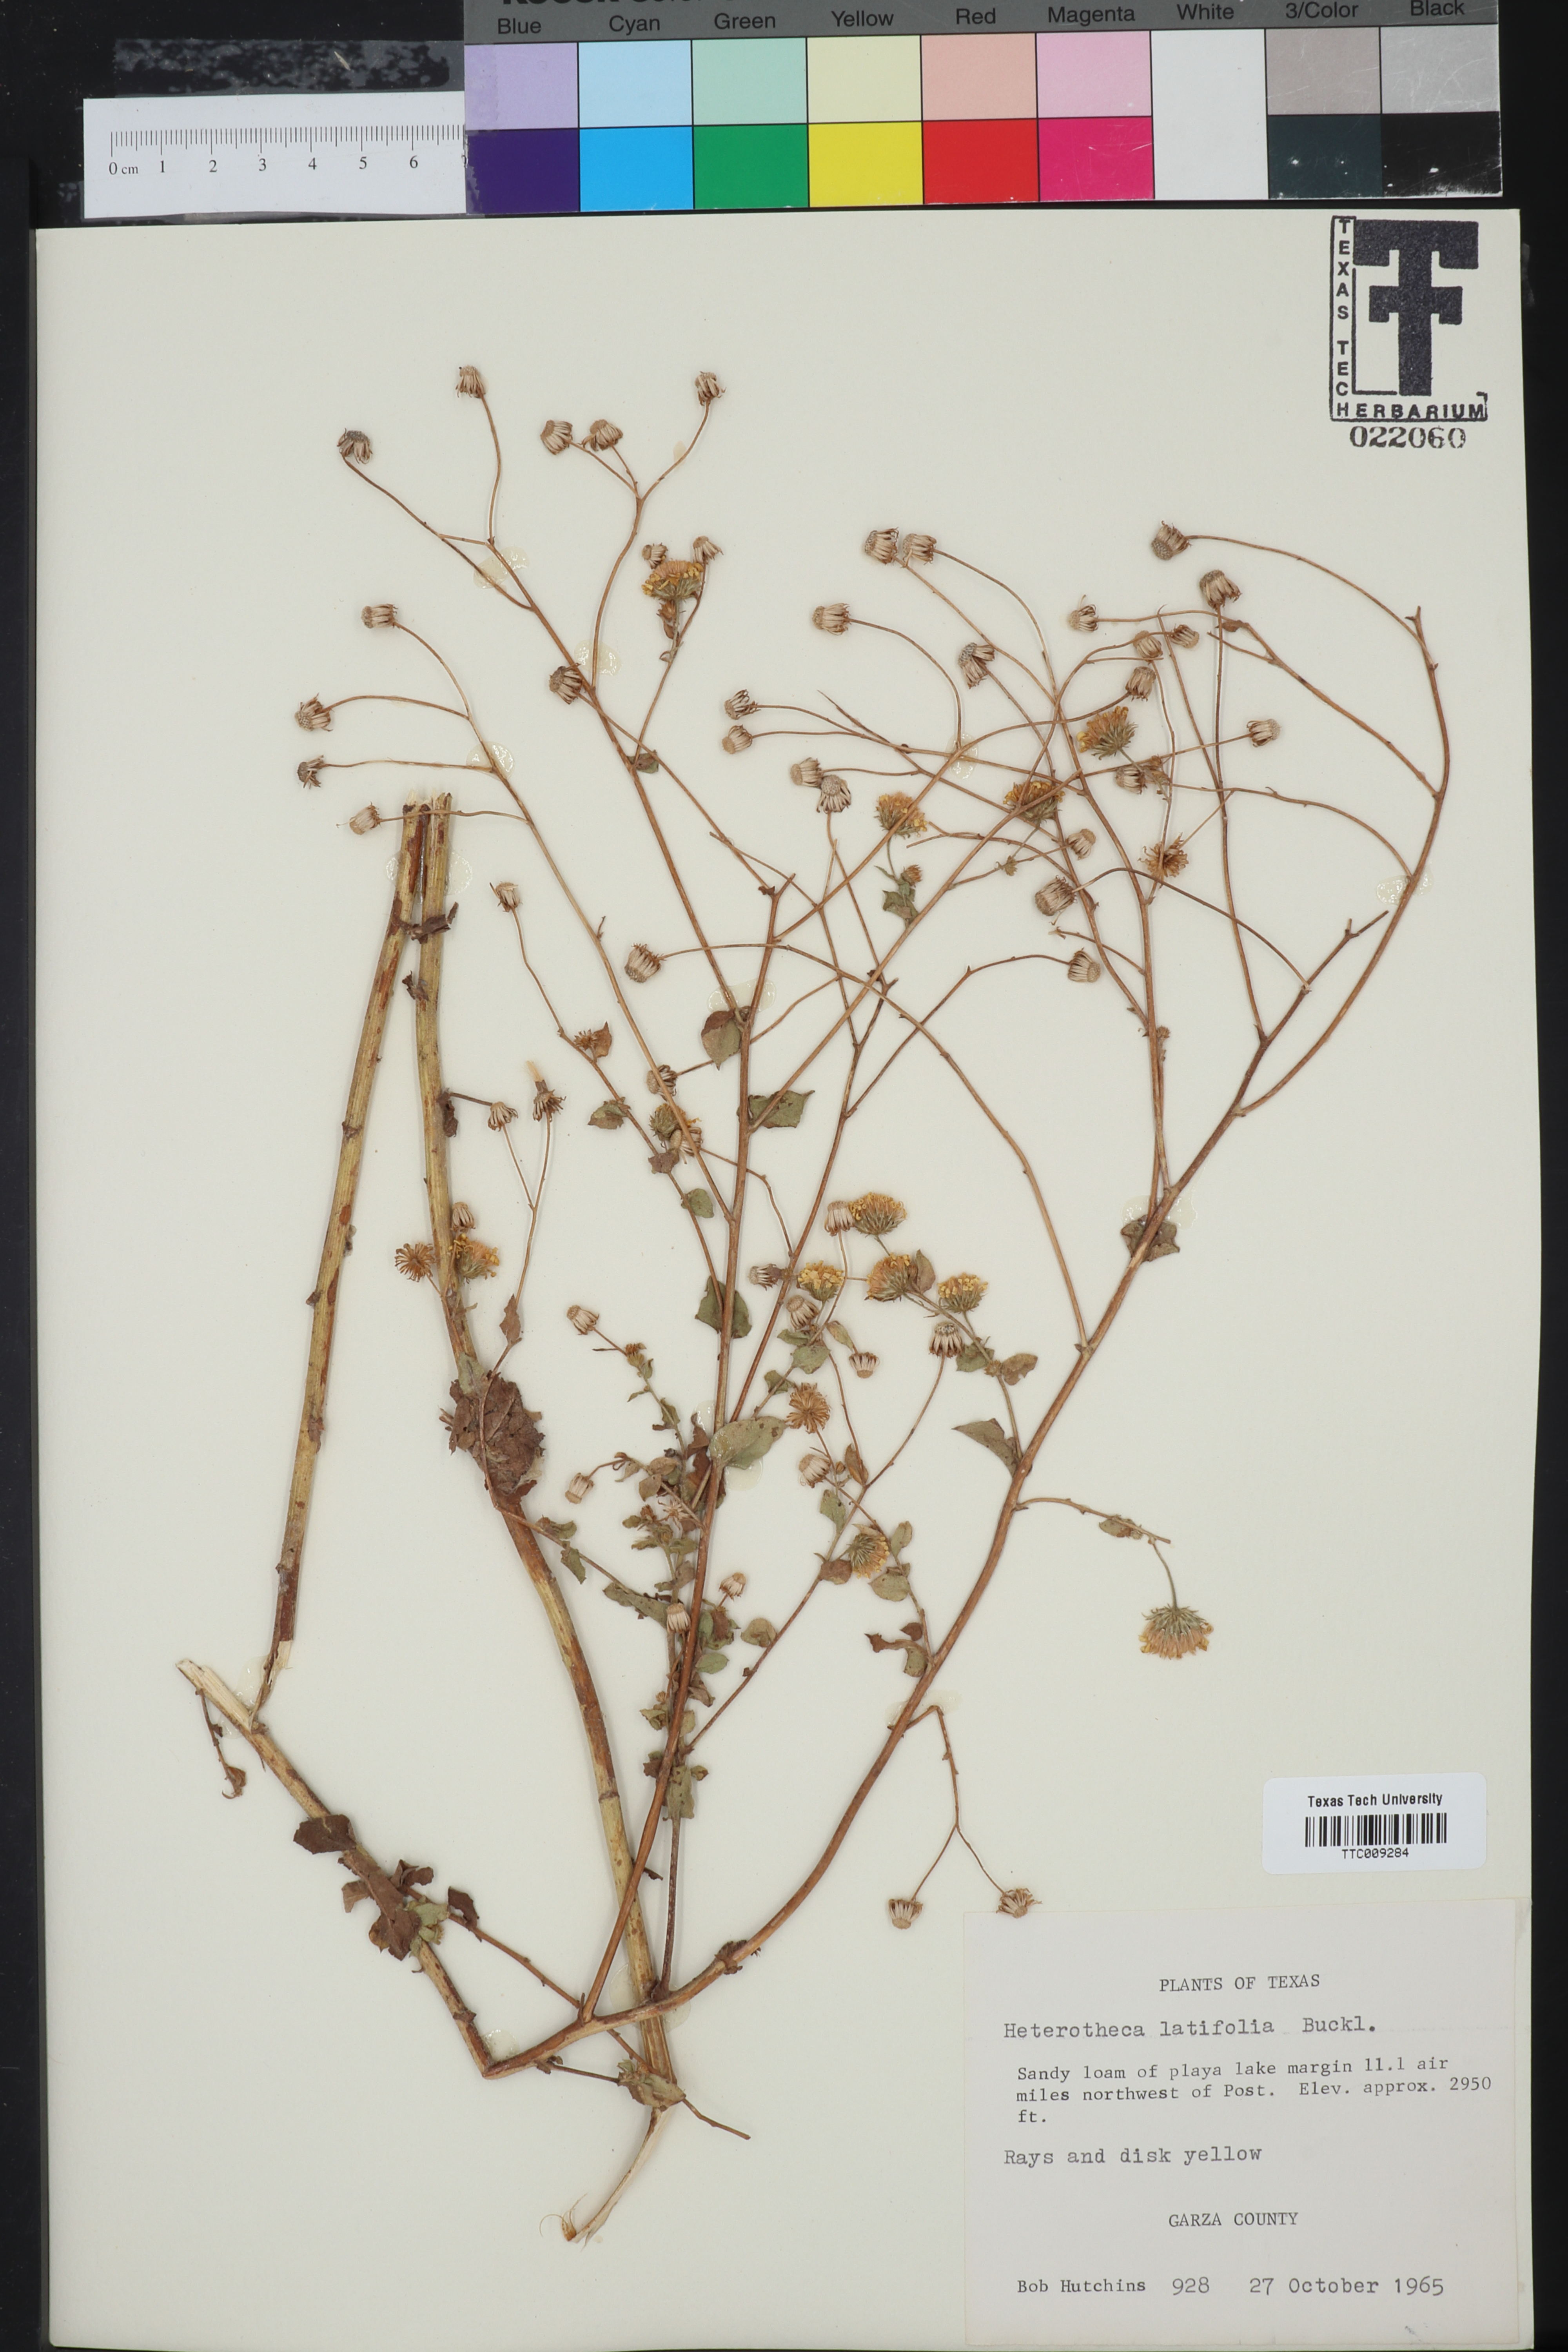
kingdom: Plantae
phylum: Tracheophyta
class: Magnoliopsida
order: Asterales
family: Asteraceae
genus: Heterotheca
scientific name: Heterotheca subaxillaris
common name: Camphorweed
